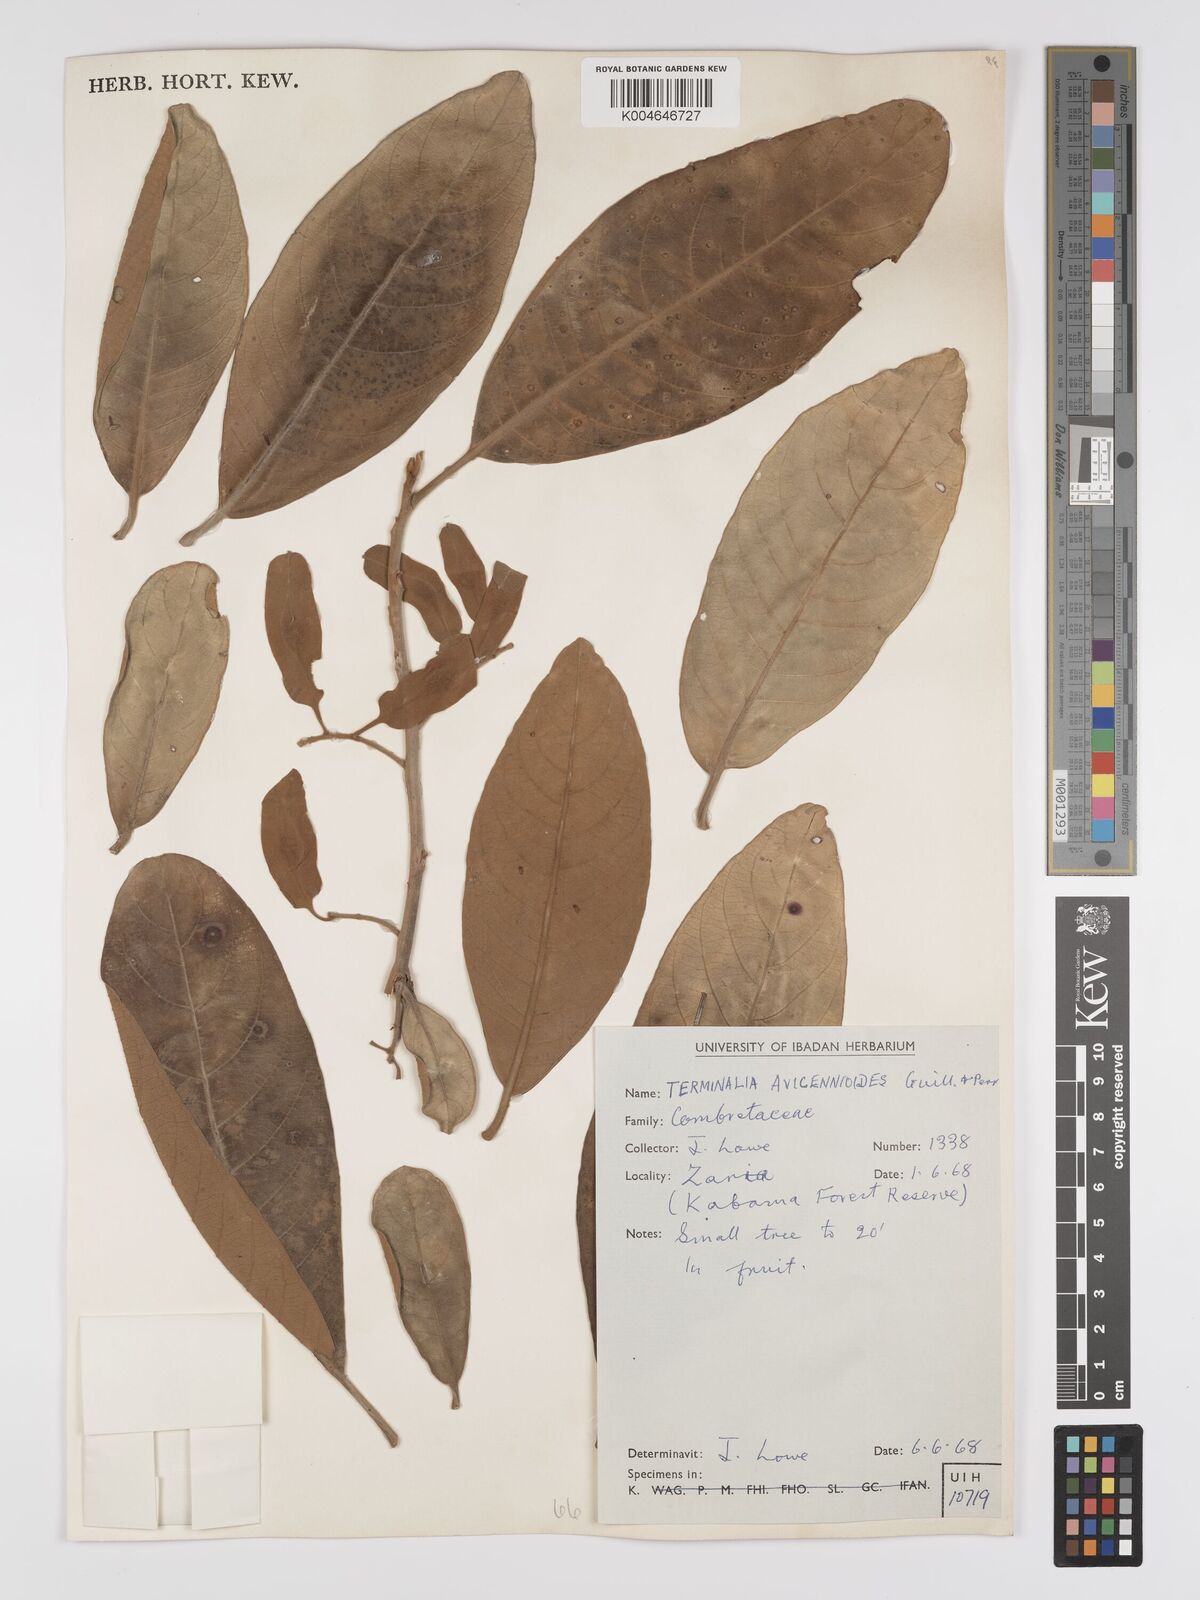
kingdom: Plantae
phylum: Tracheophyta
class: Magnoliopsida
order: Myrtales
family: Combretaceae
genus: Terminalia
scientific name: Terminalia avicennioides
